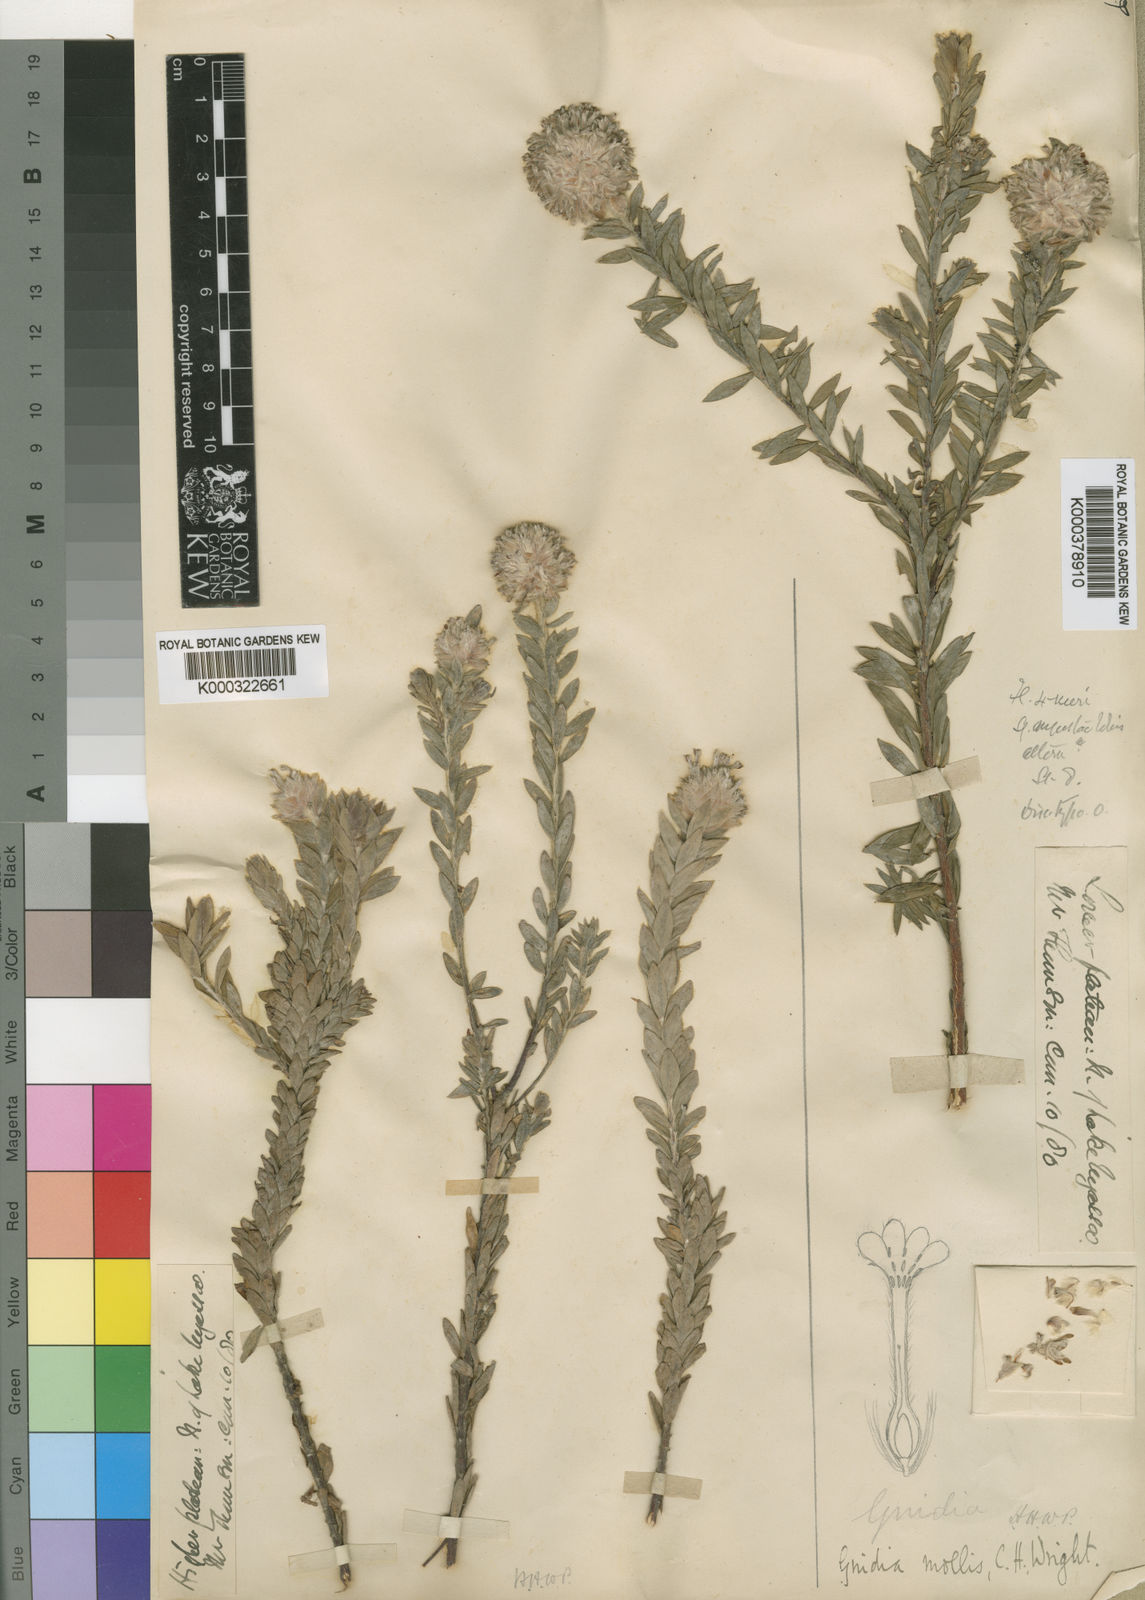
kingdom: Plantae
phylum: Tracheophyta
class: Magnoliopsida
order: Malvales
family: Thymelaeaceae
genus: Gnidia
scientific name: Gnidia mollis
